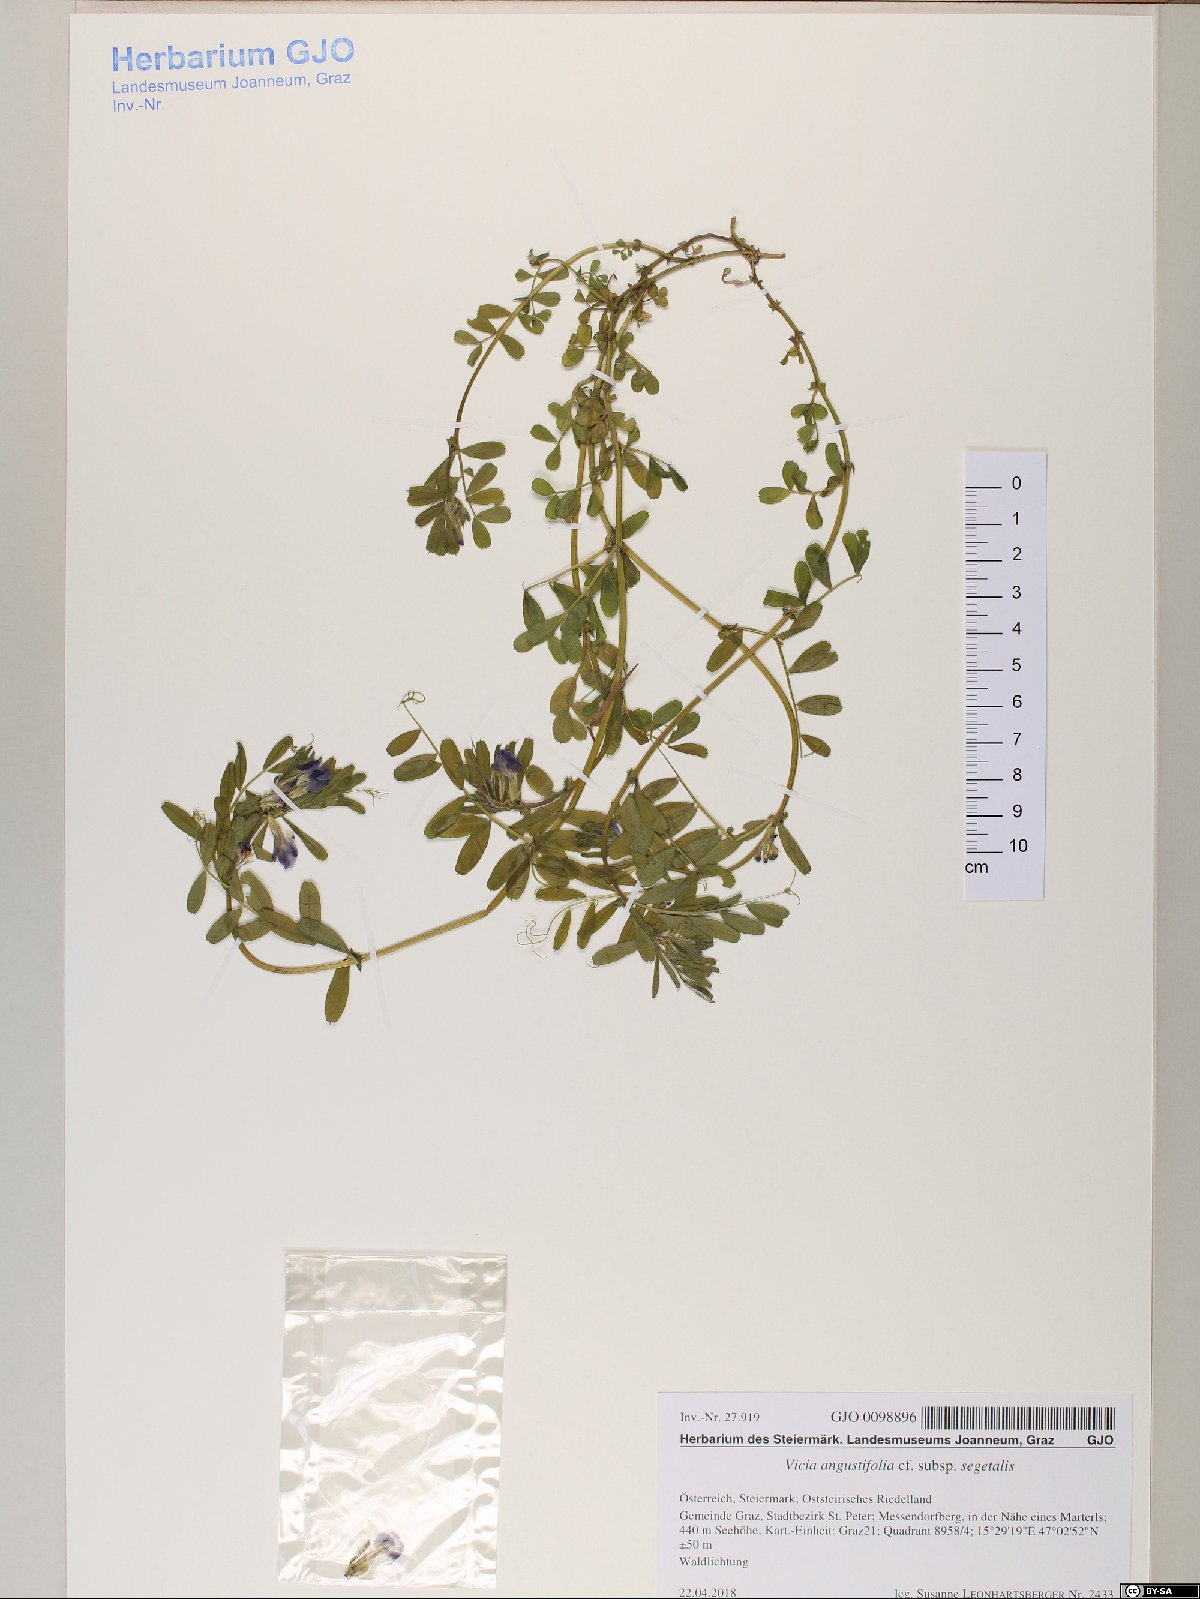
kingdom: Plantae
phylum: Tracheophyta
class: Magnoliopsida
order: Fabales
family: Fabaceae
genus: Vicia
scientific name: Vicia sativa
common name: Garden vetch
